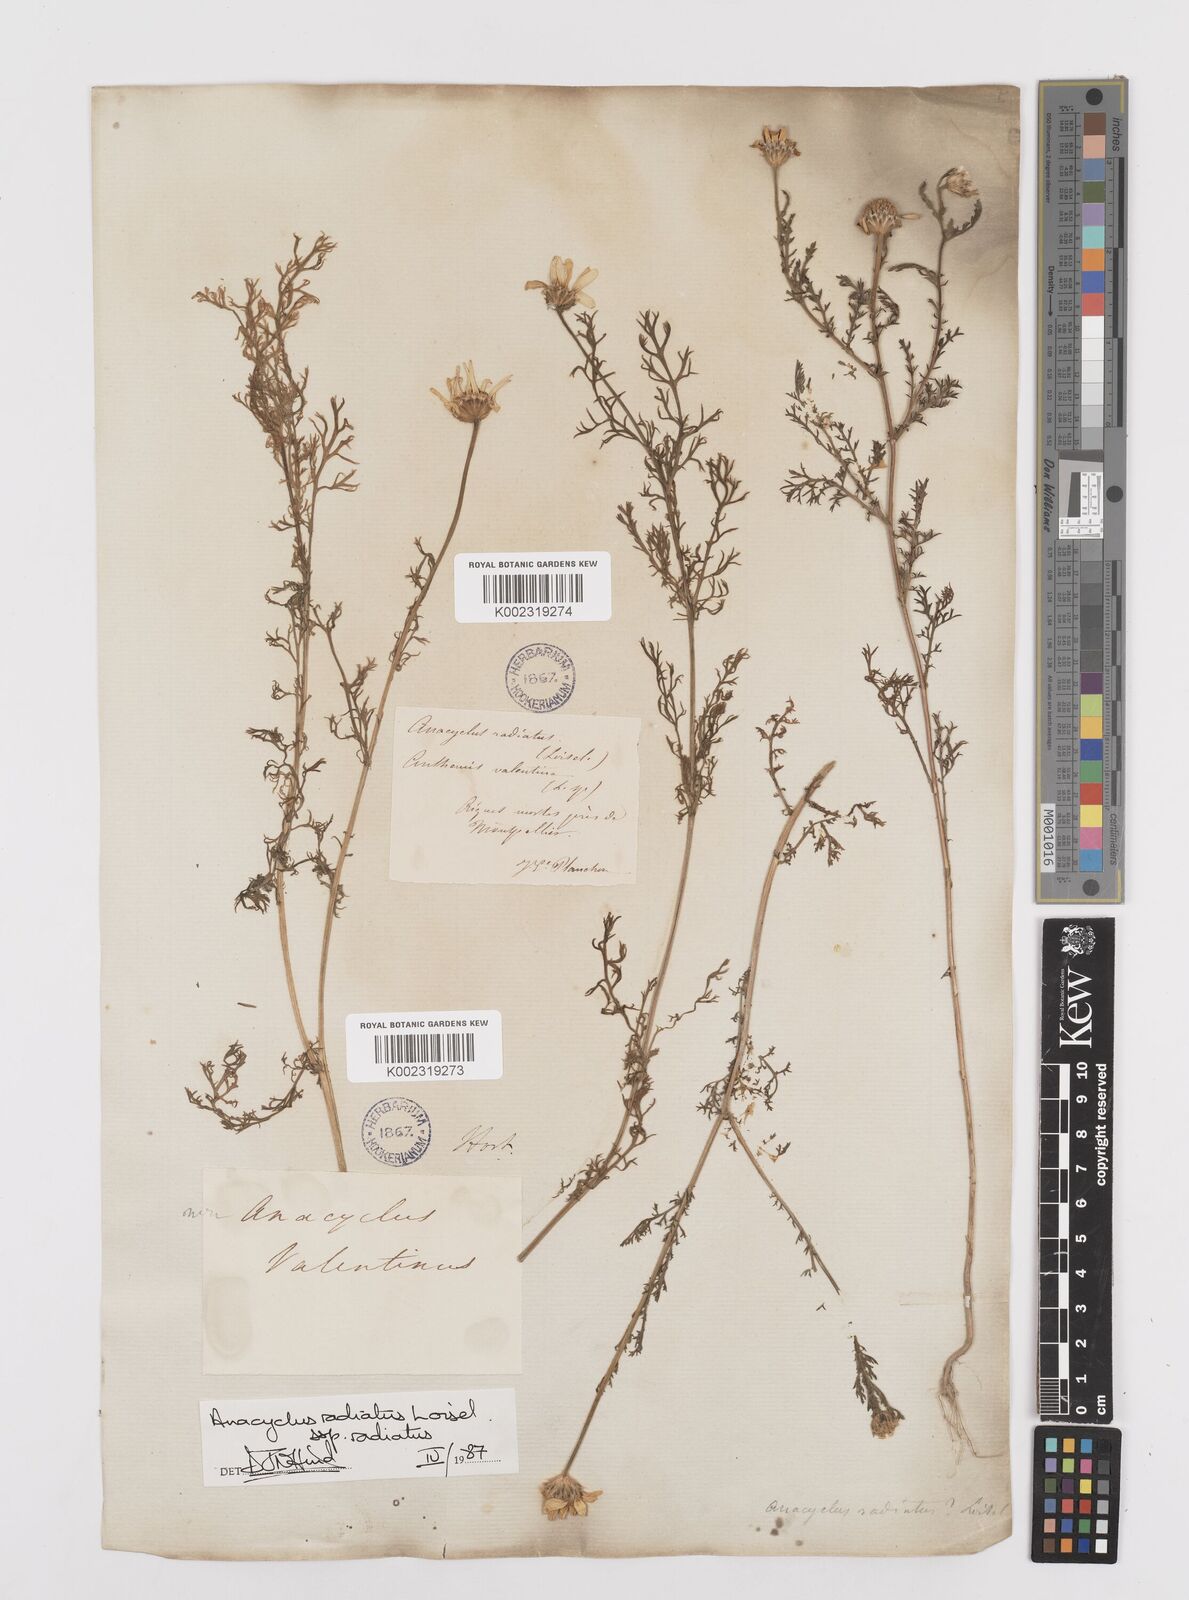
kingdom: Plantae
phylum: Tracheophyta
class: Magnoliopsida
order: Asterales
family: Asteraceae
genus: Anacyclus
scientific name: Anacyclus radiatus
